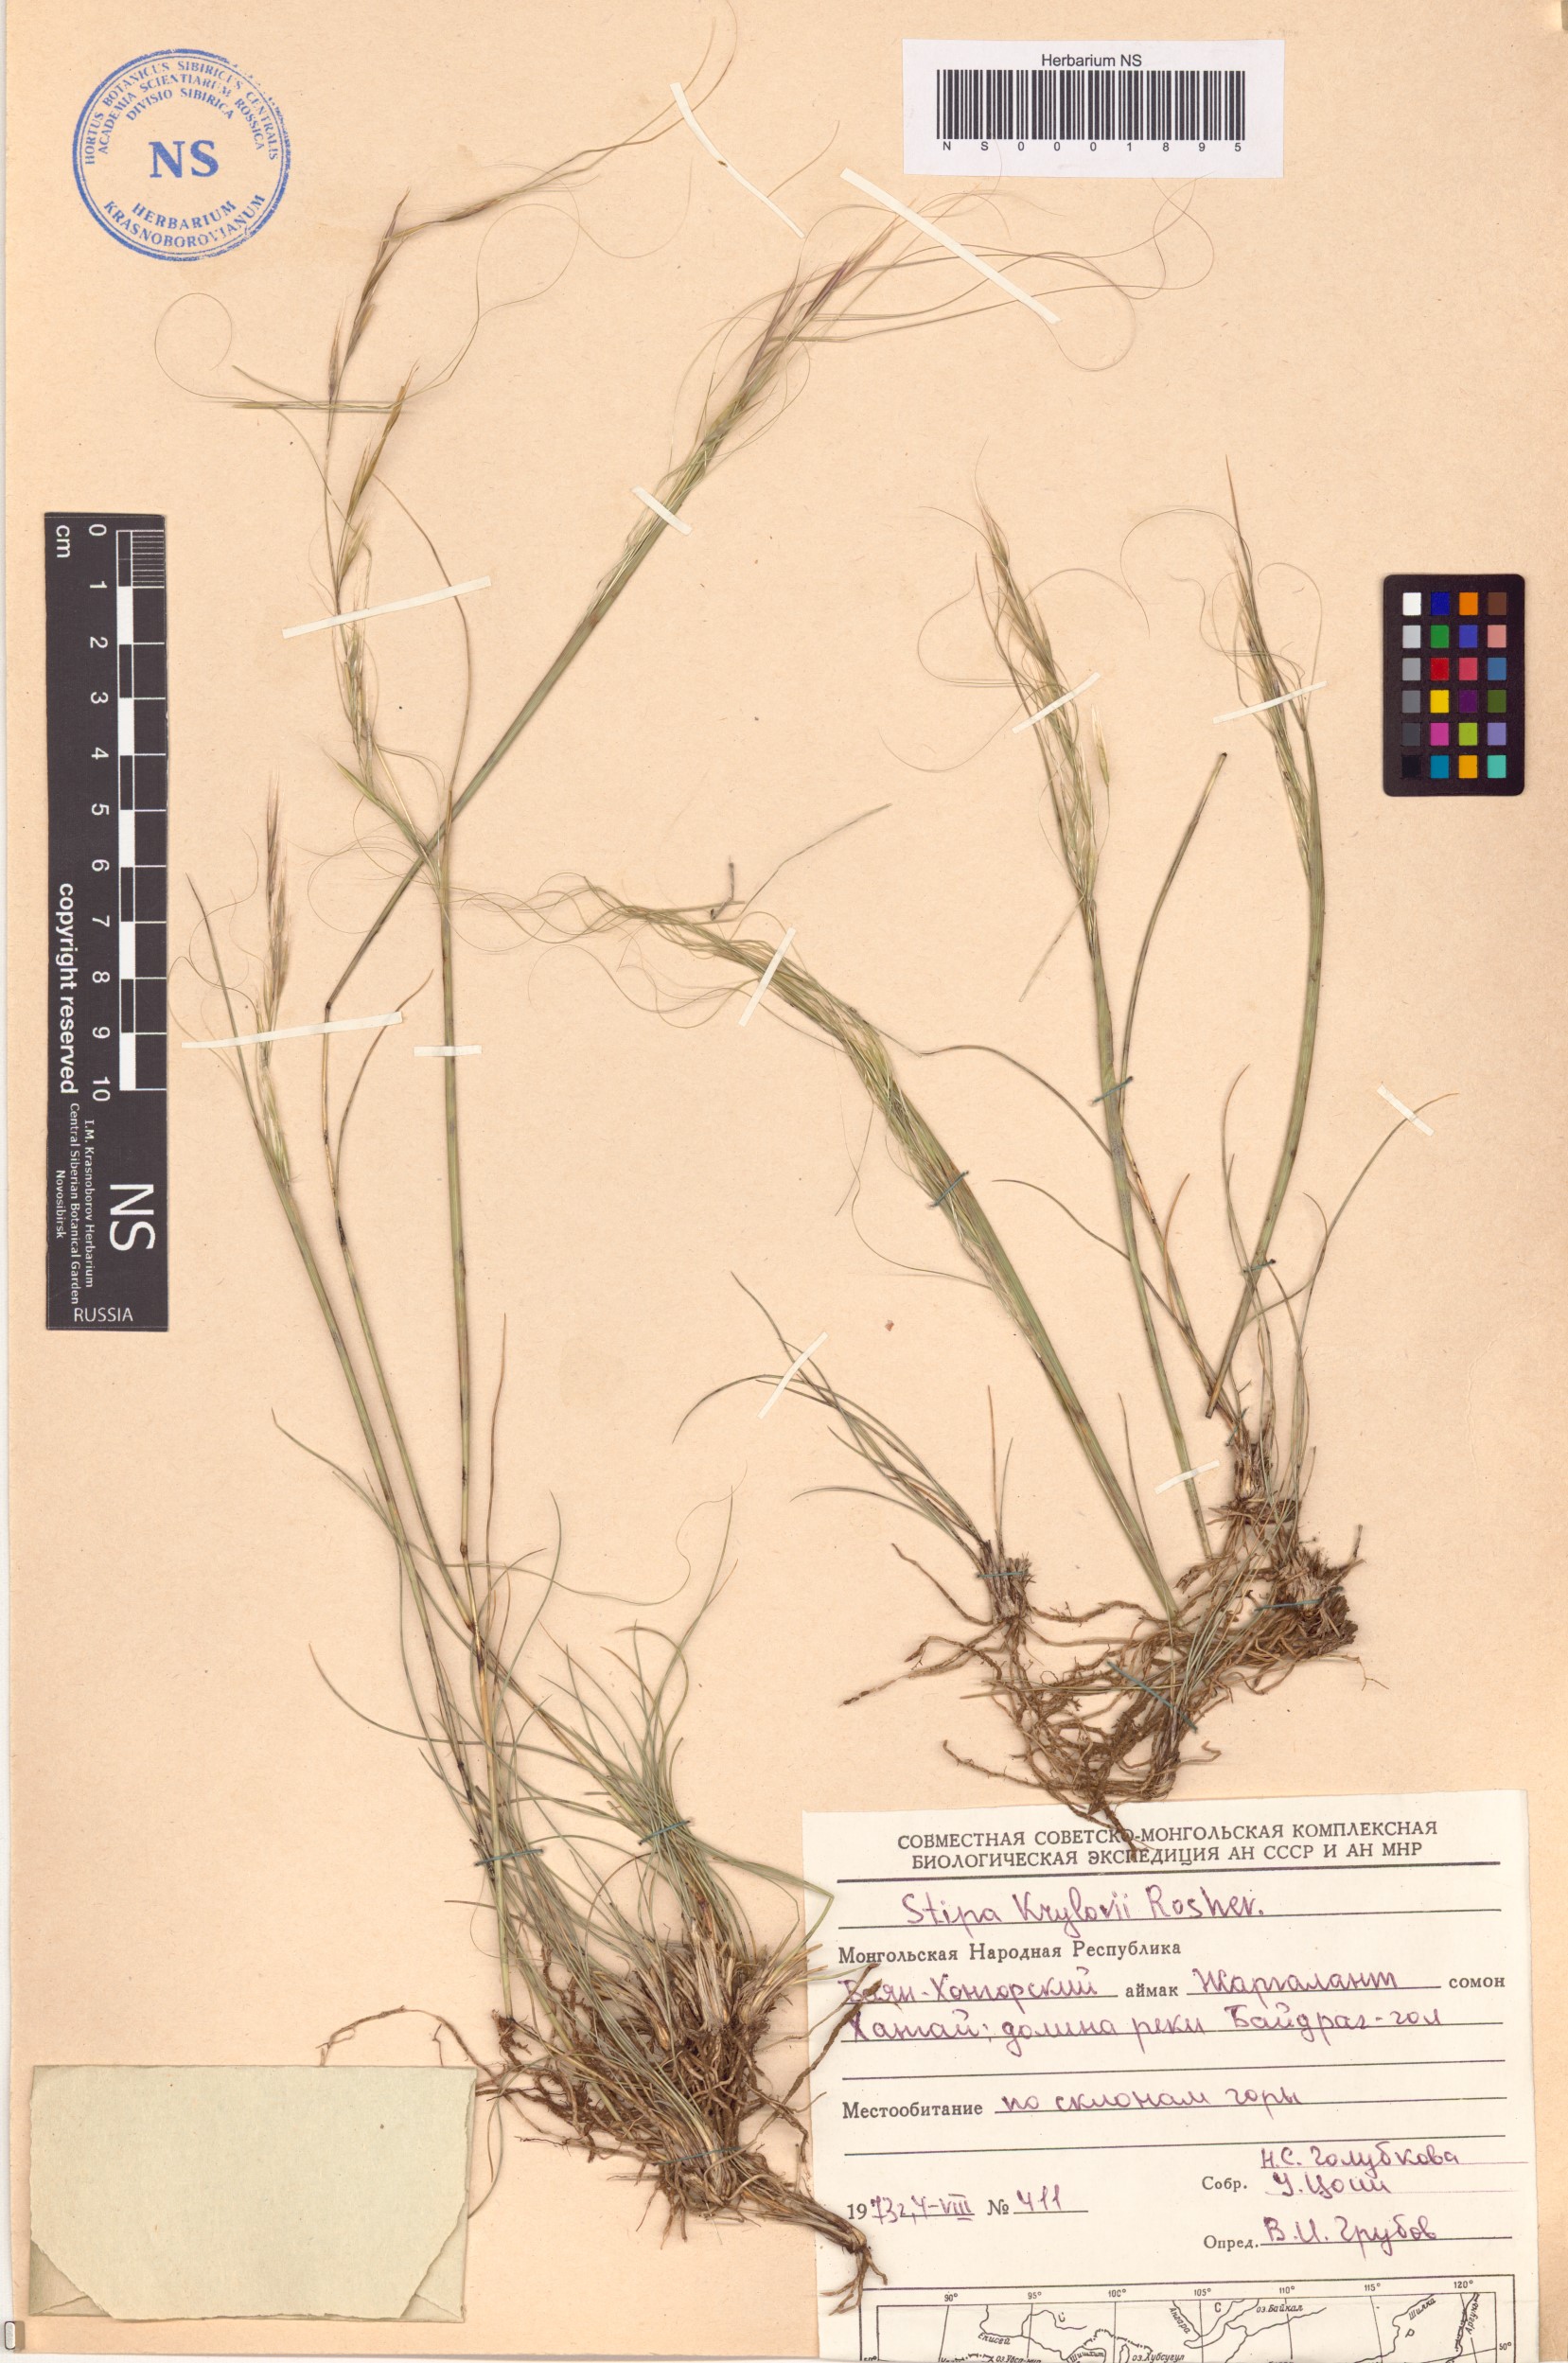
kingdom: Plantae
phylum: Tracheophyta
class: Liliopsida
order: Poales
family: Poaceae
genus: Stipa
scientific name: Stipa krylovii
